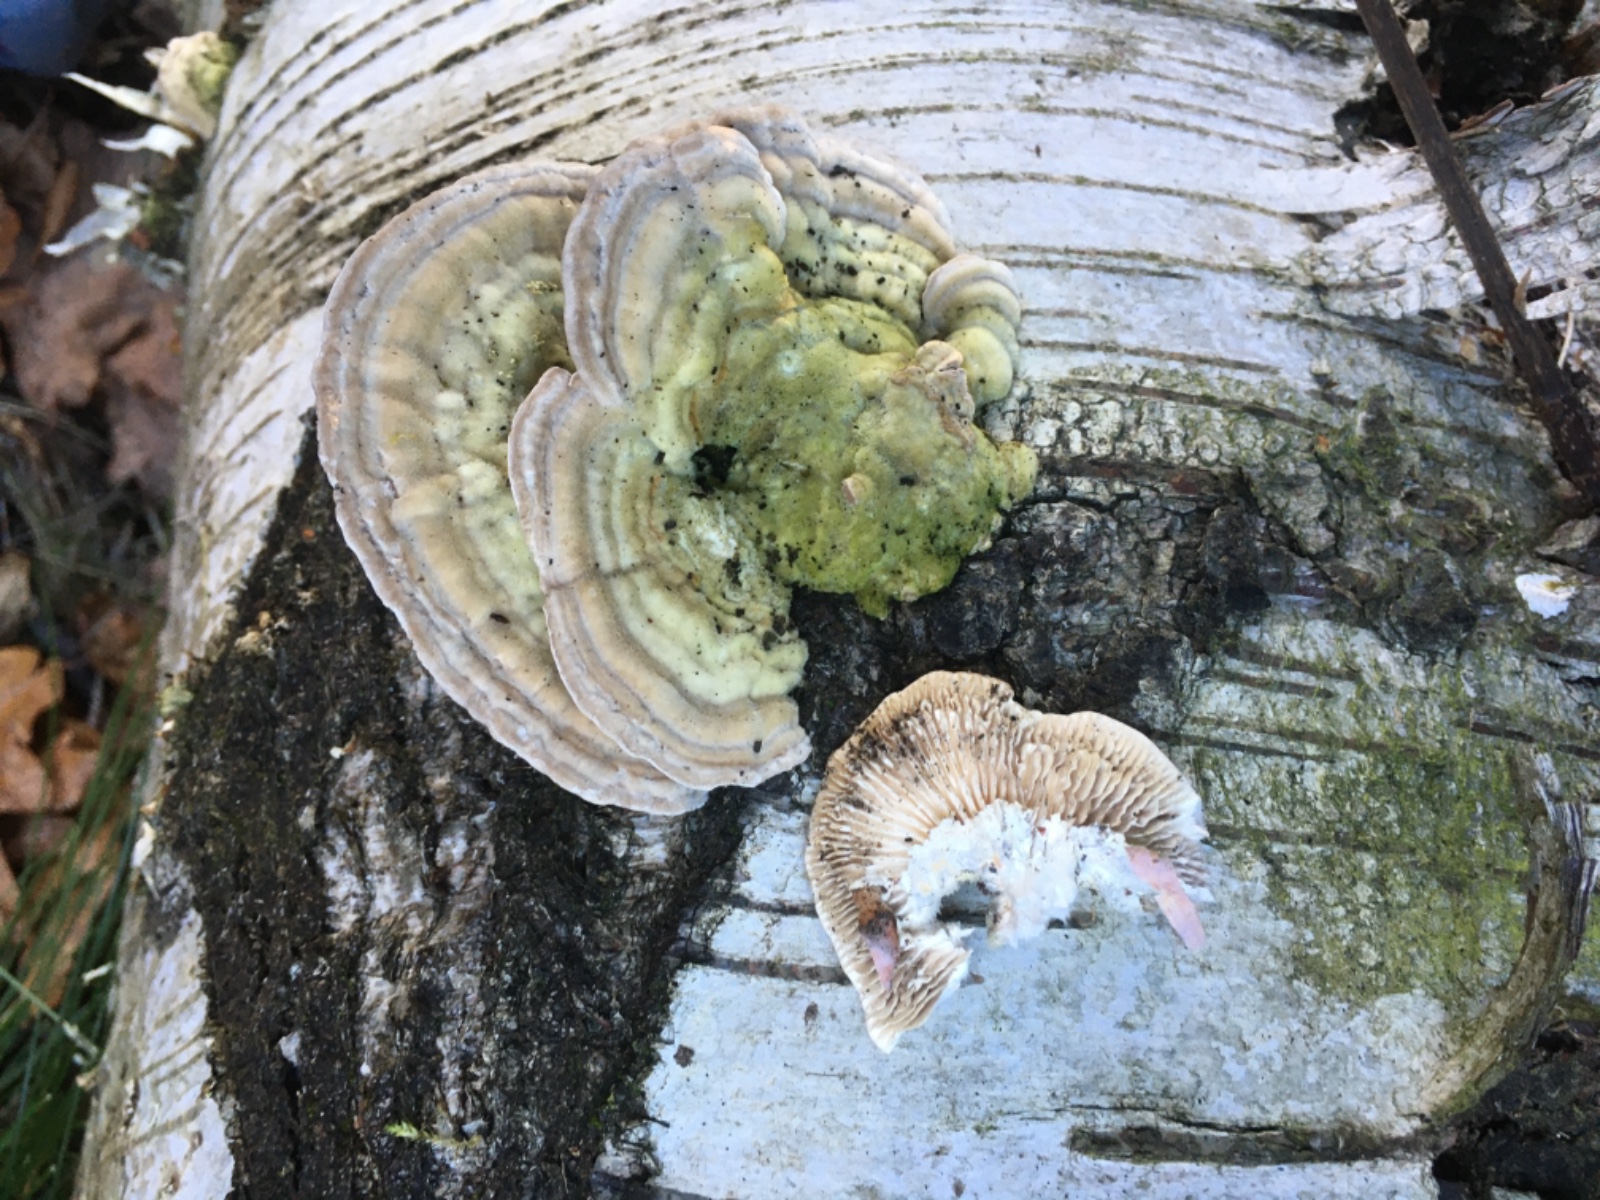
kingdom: Fungi
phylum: Basidiomycota
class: Agaricomycetes
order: Polyporales
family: Polyporaceae
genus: Lenzites
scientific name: Lenzites betulinus
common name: birke-læderporesvamp
